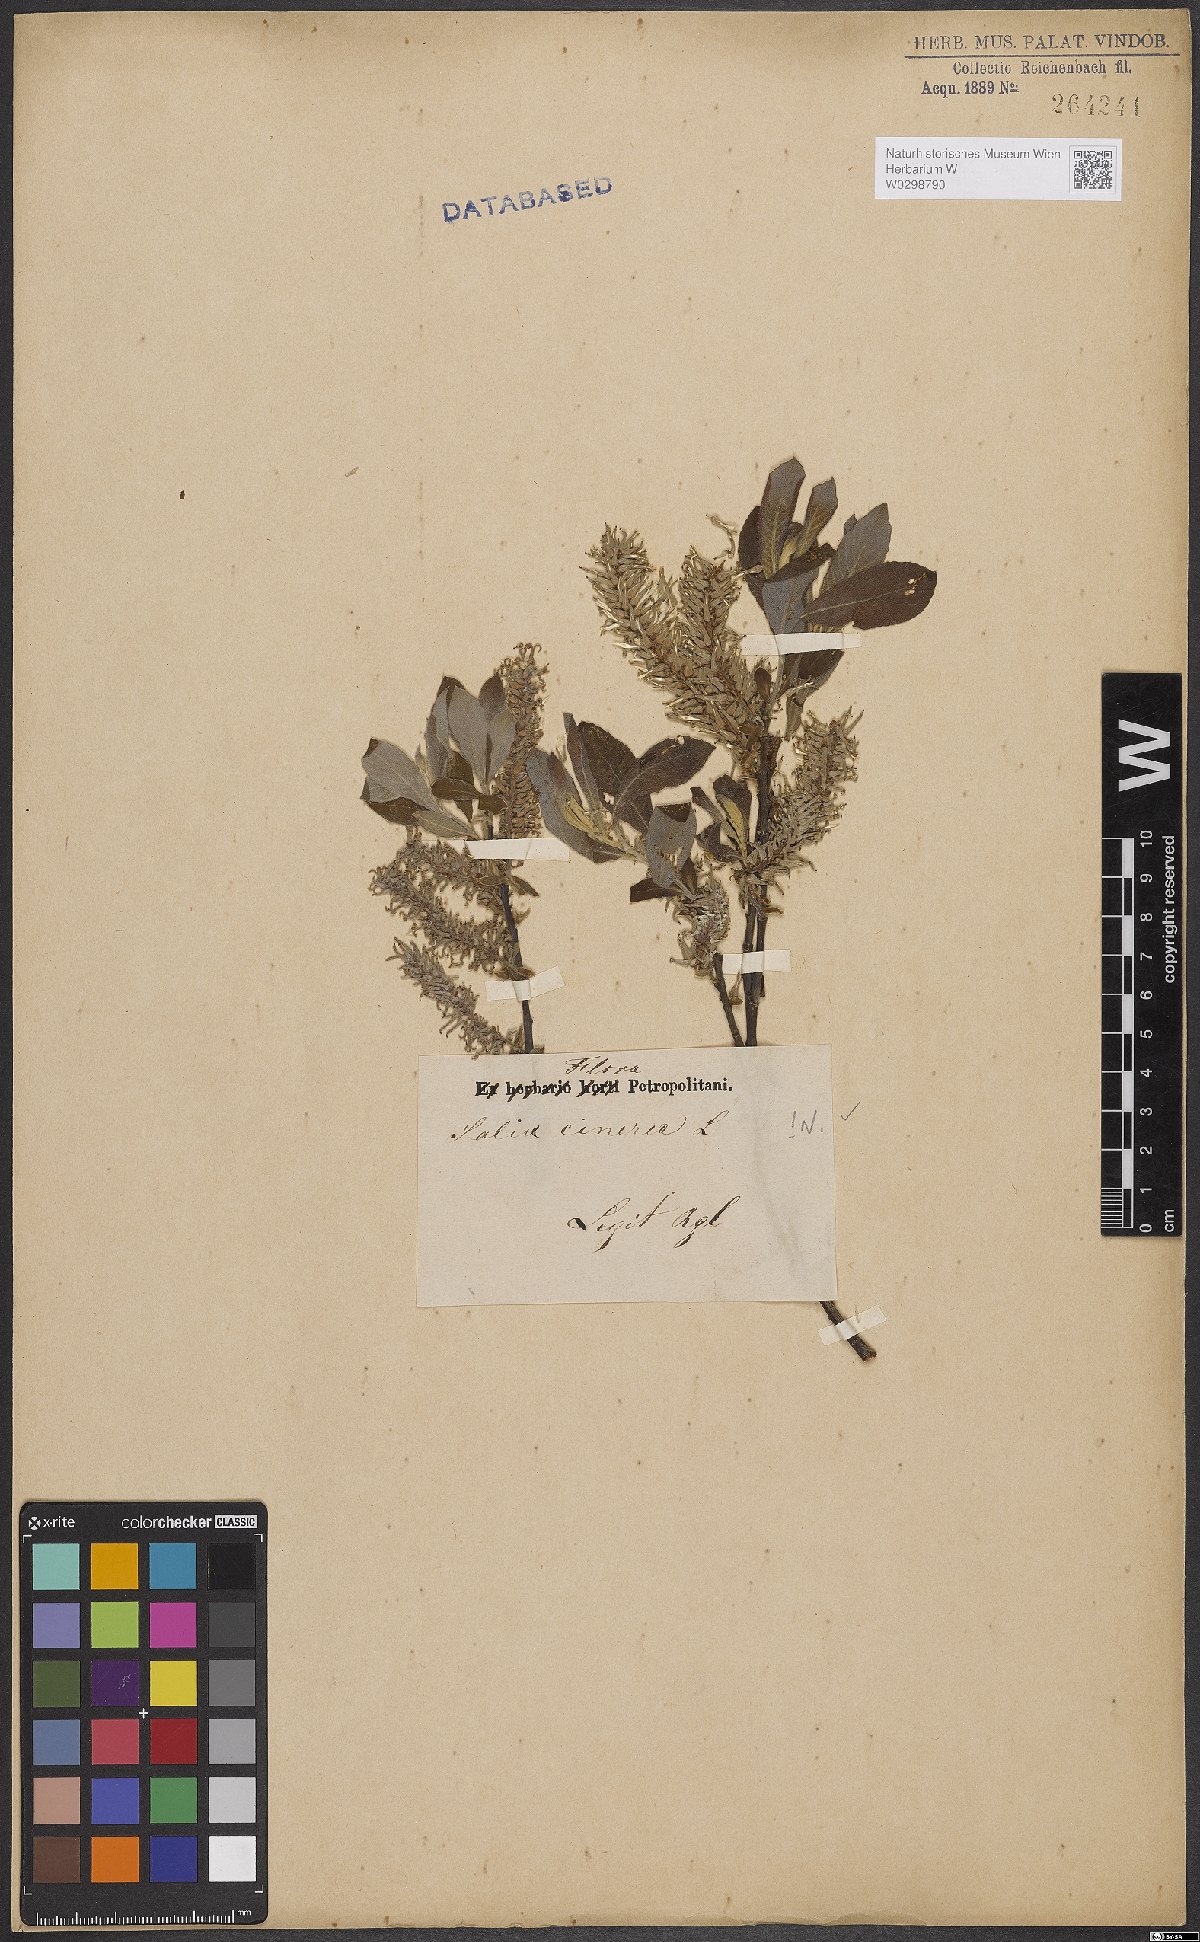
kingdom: Plantae
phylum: Tracheophyta
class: Magnoliopsida
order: Malpighiales
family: Salicaceae
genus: Salix
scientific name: Salix cinerea
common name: Common sallow
